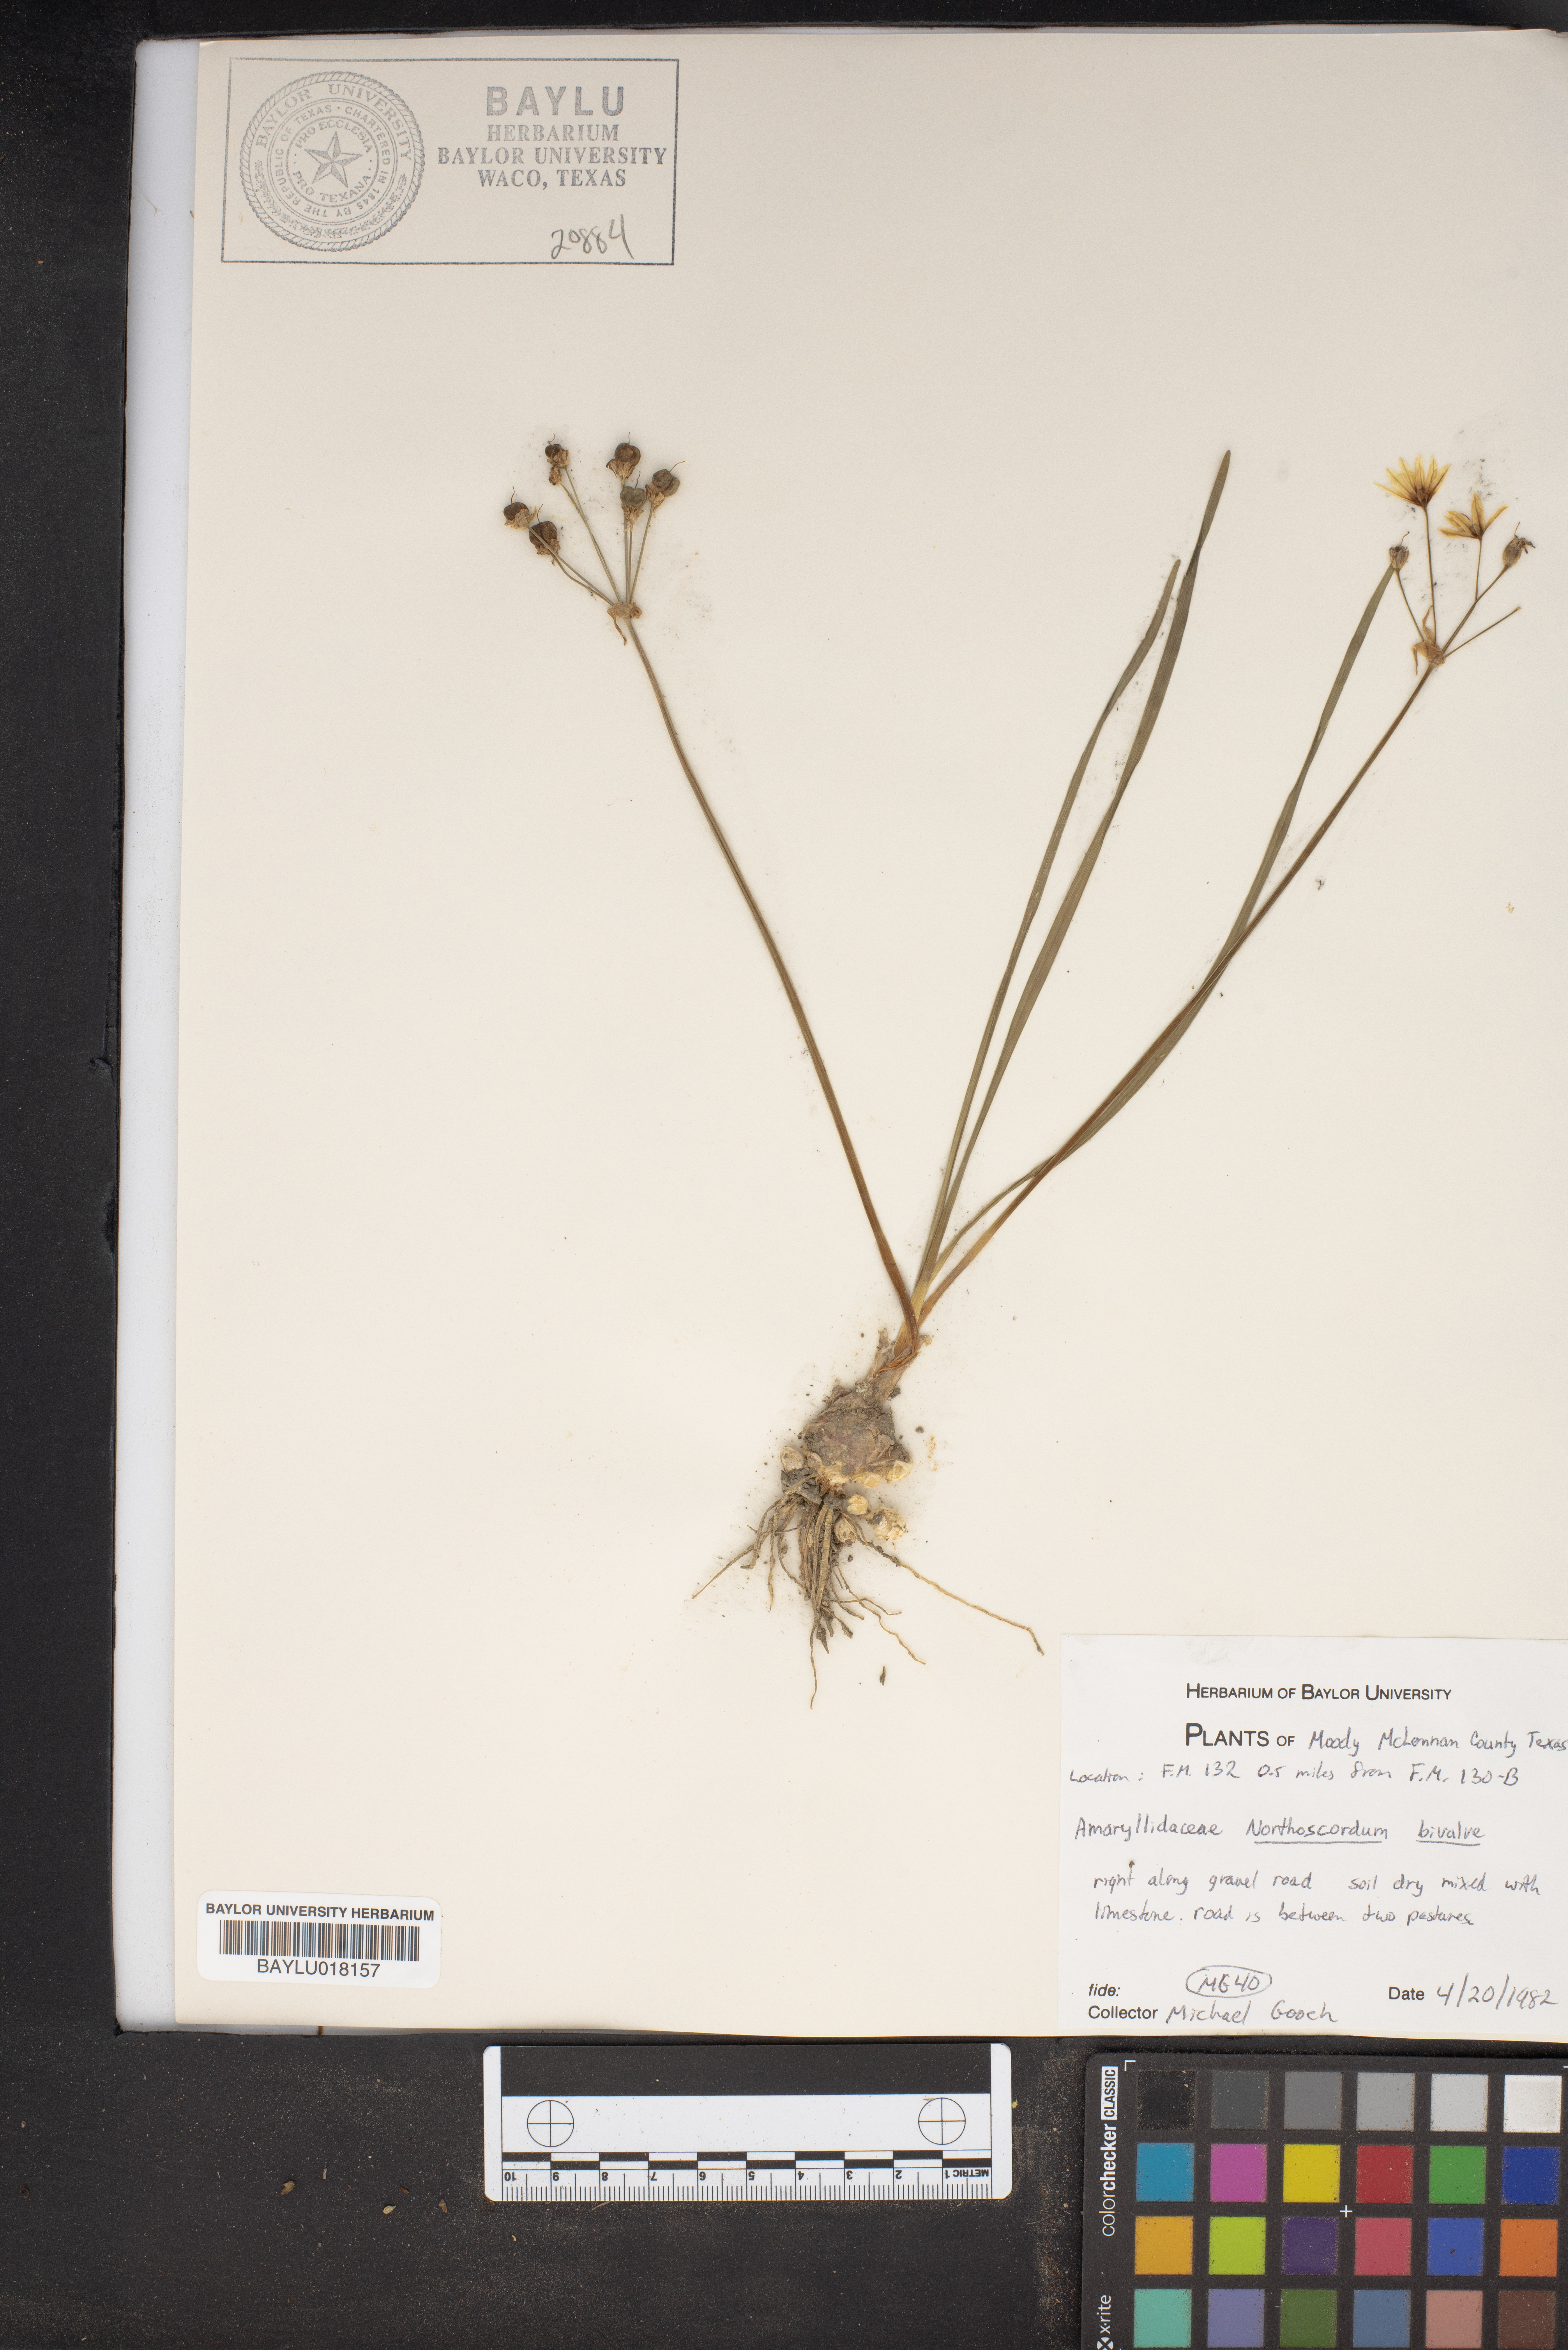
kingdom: Plantae
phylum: Tracheophyta
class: Liliopsida
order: Asparagales
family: Amaryllidaceae
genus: Nothoscordum
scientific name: Nothoscordum bivalve
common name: Crow-poison
